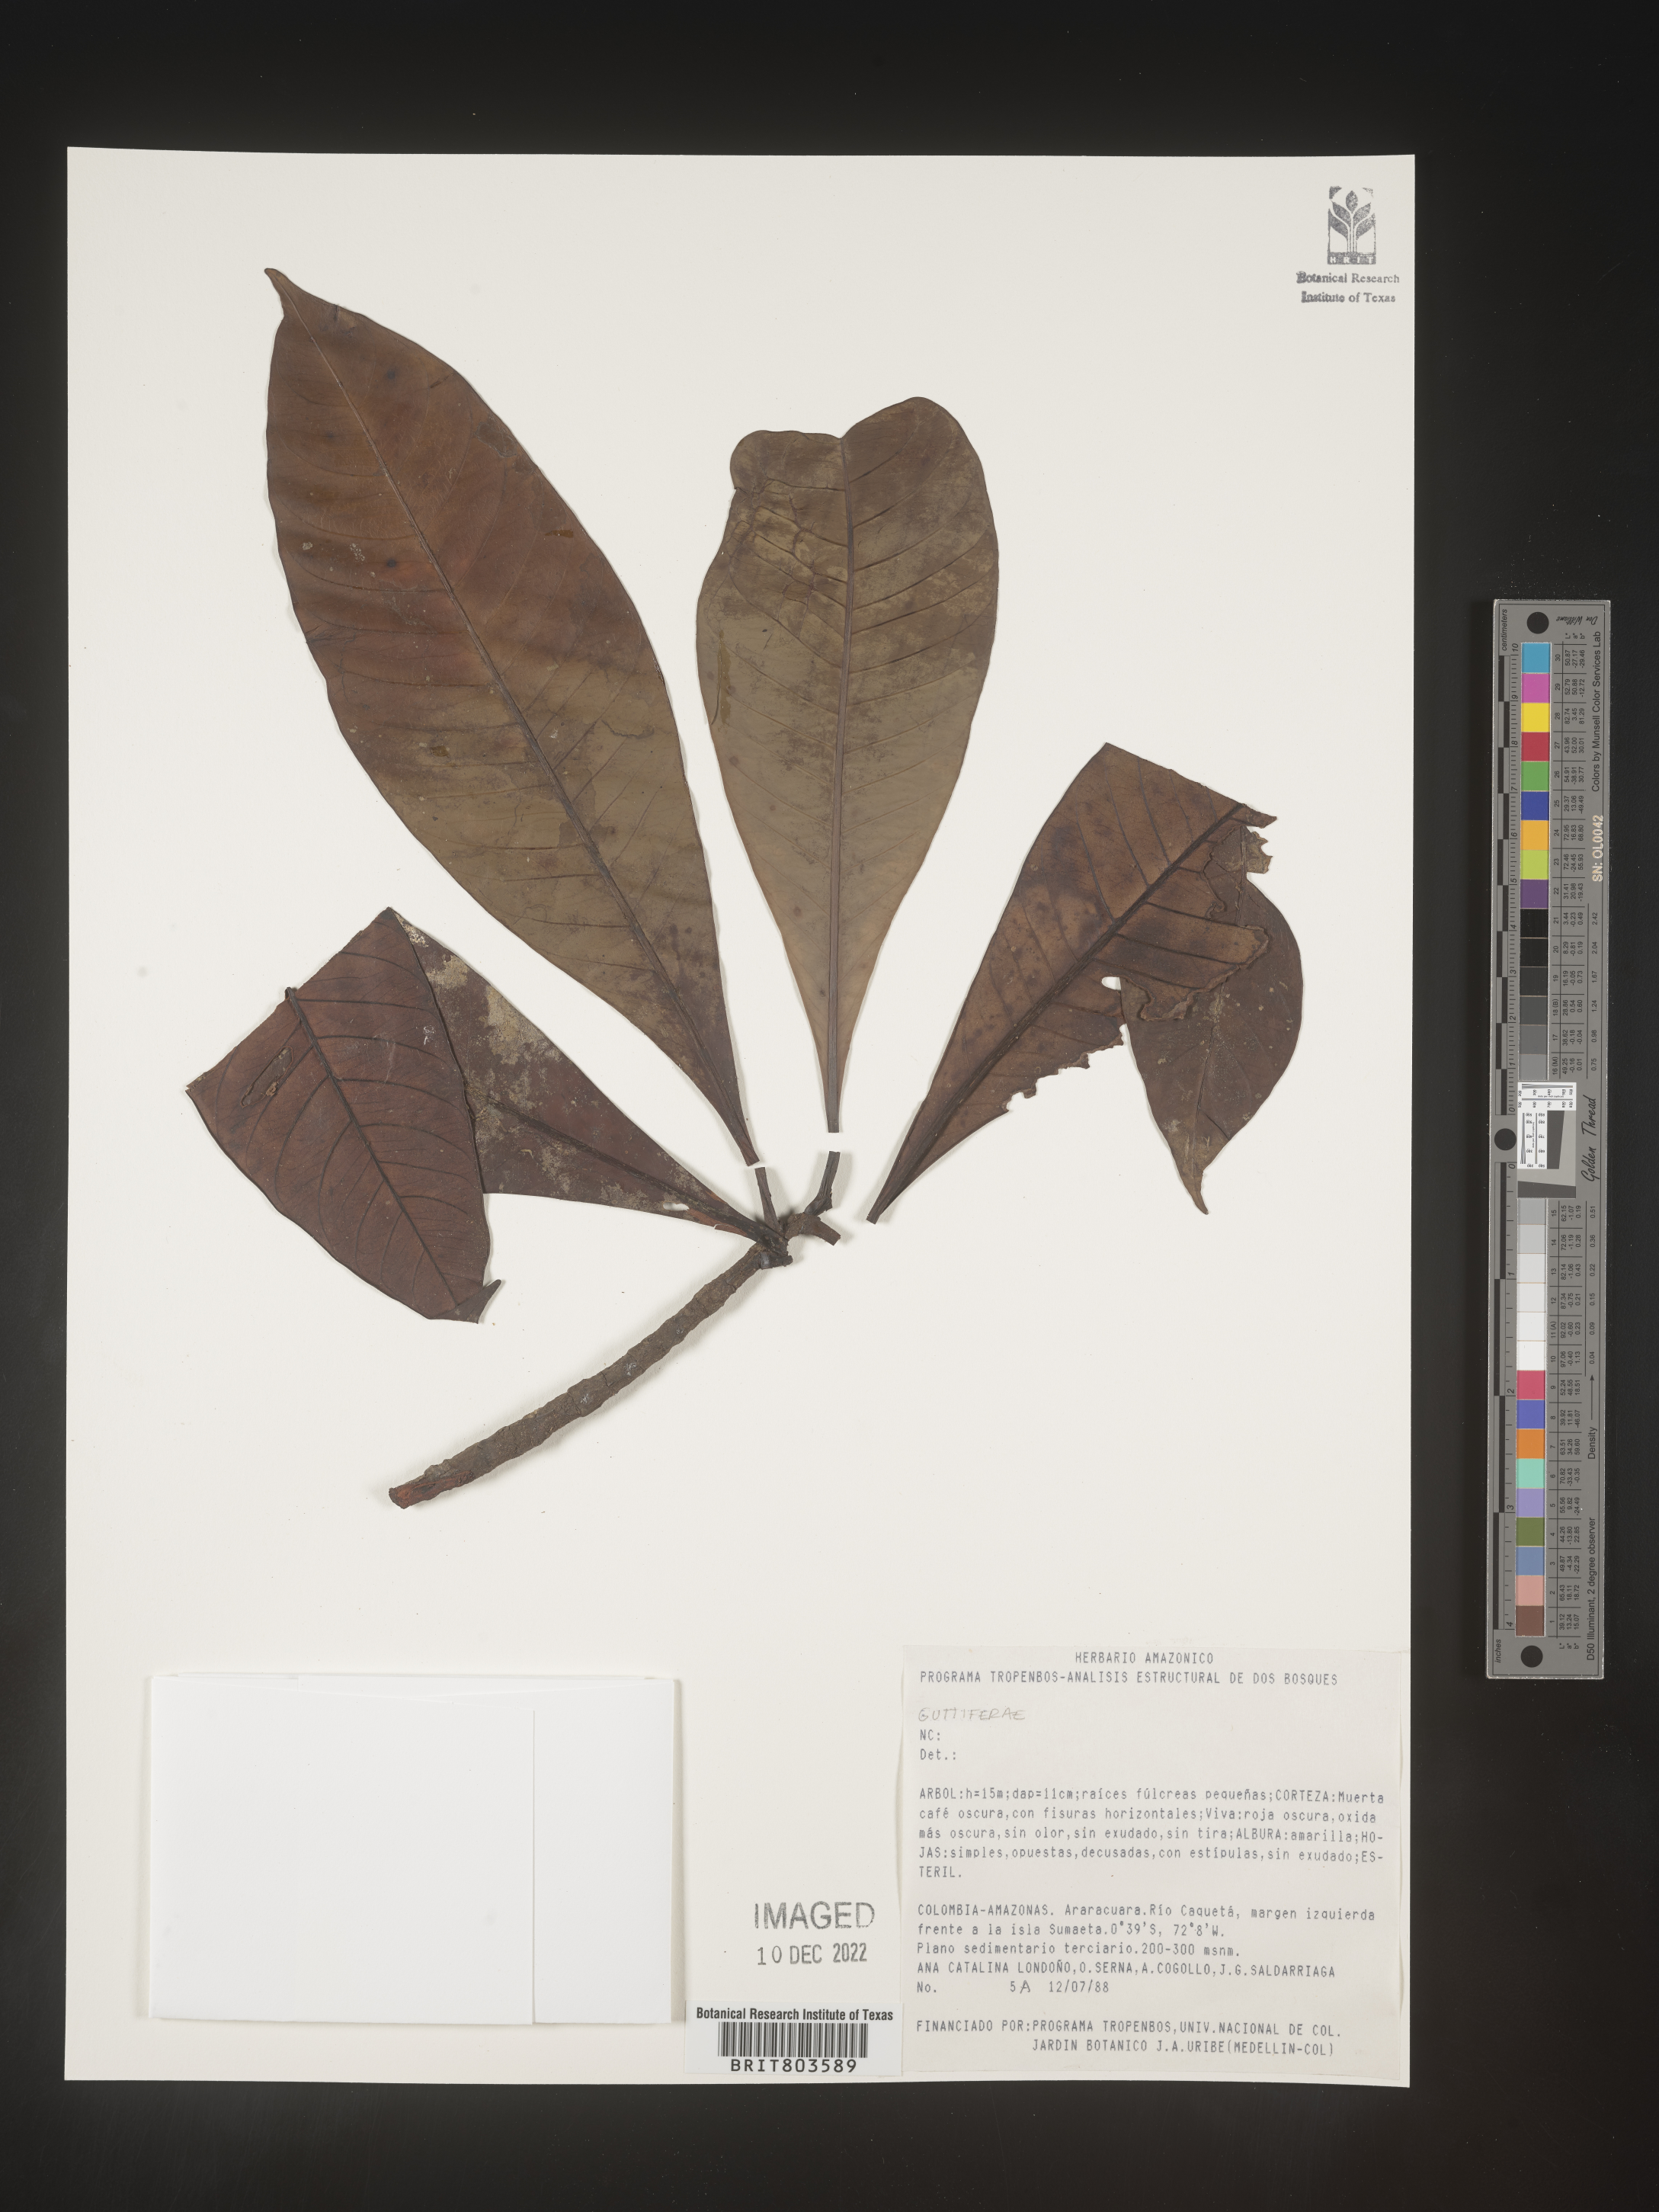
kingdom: Plantae
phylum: Tracheophyta
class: Magnoliopsida
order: Malpighiales
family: Clusiaceae
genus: Tovomita
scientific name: Tovomita
